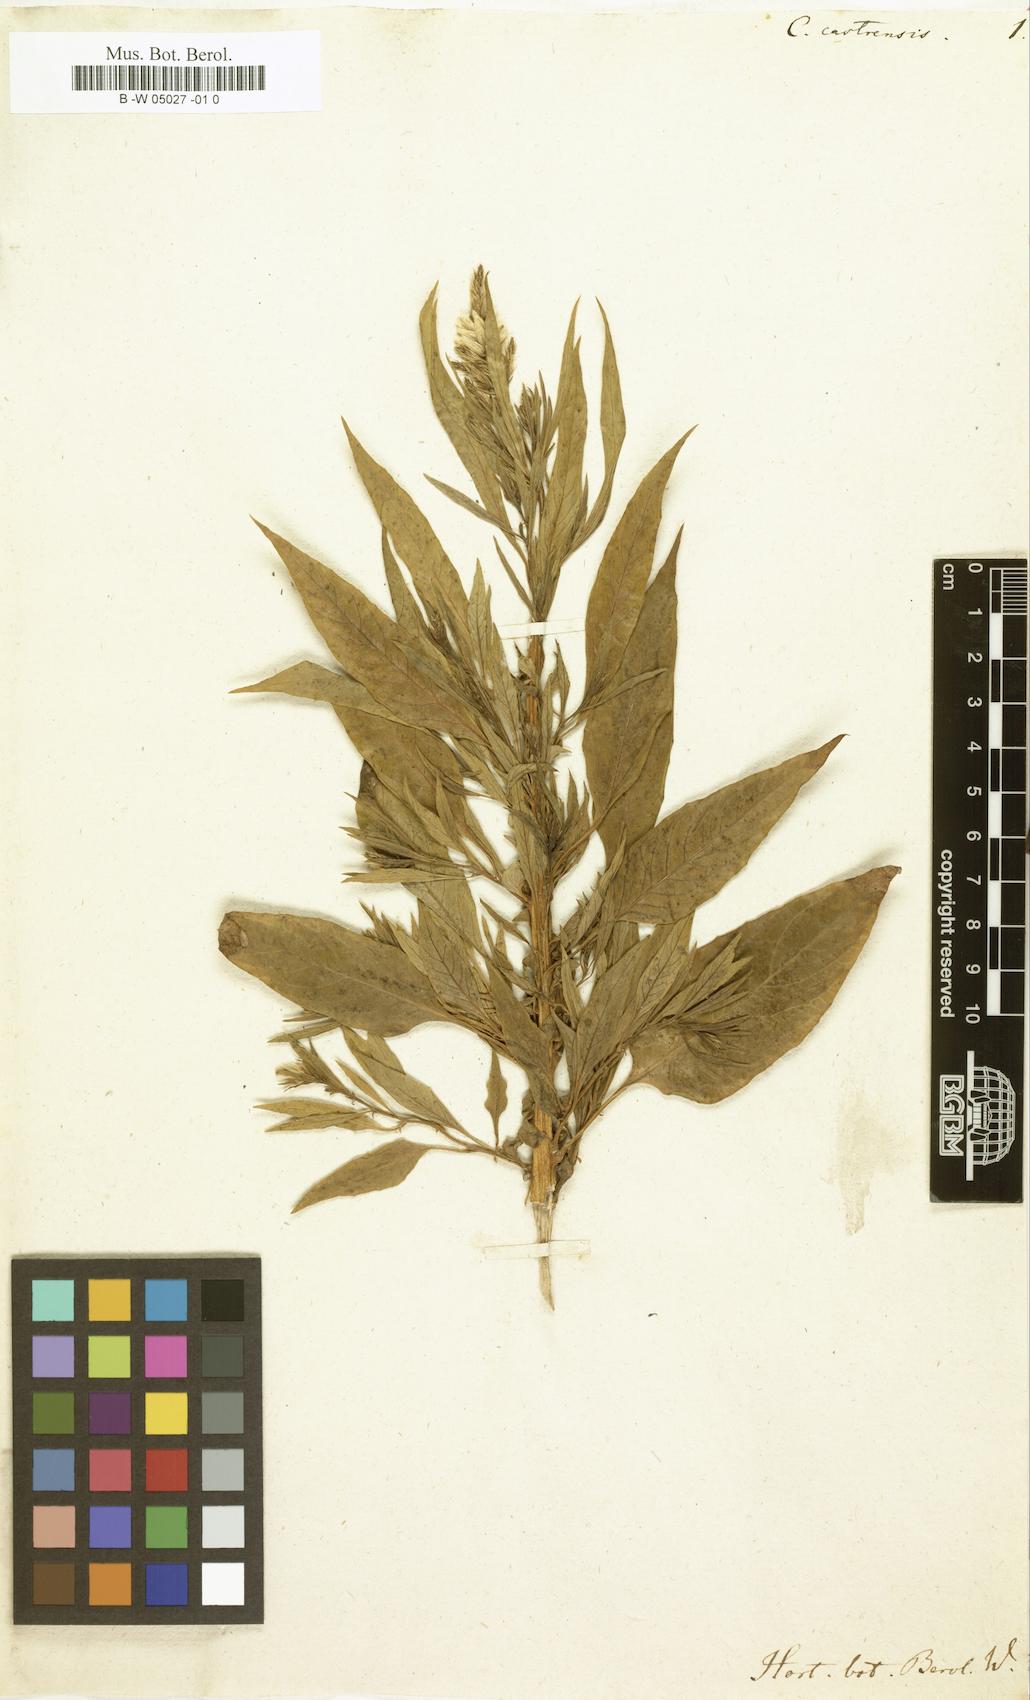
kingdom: Plantae
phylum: Tracheophyta
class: Magnoliopsida
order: Caryophyllales
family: Amaranthaceae
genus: Celosia
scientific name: Celosia argentea
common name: Feather cockscomb
